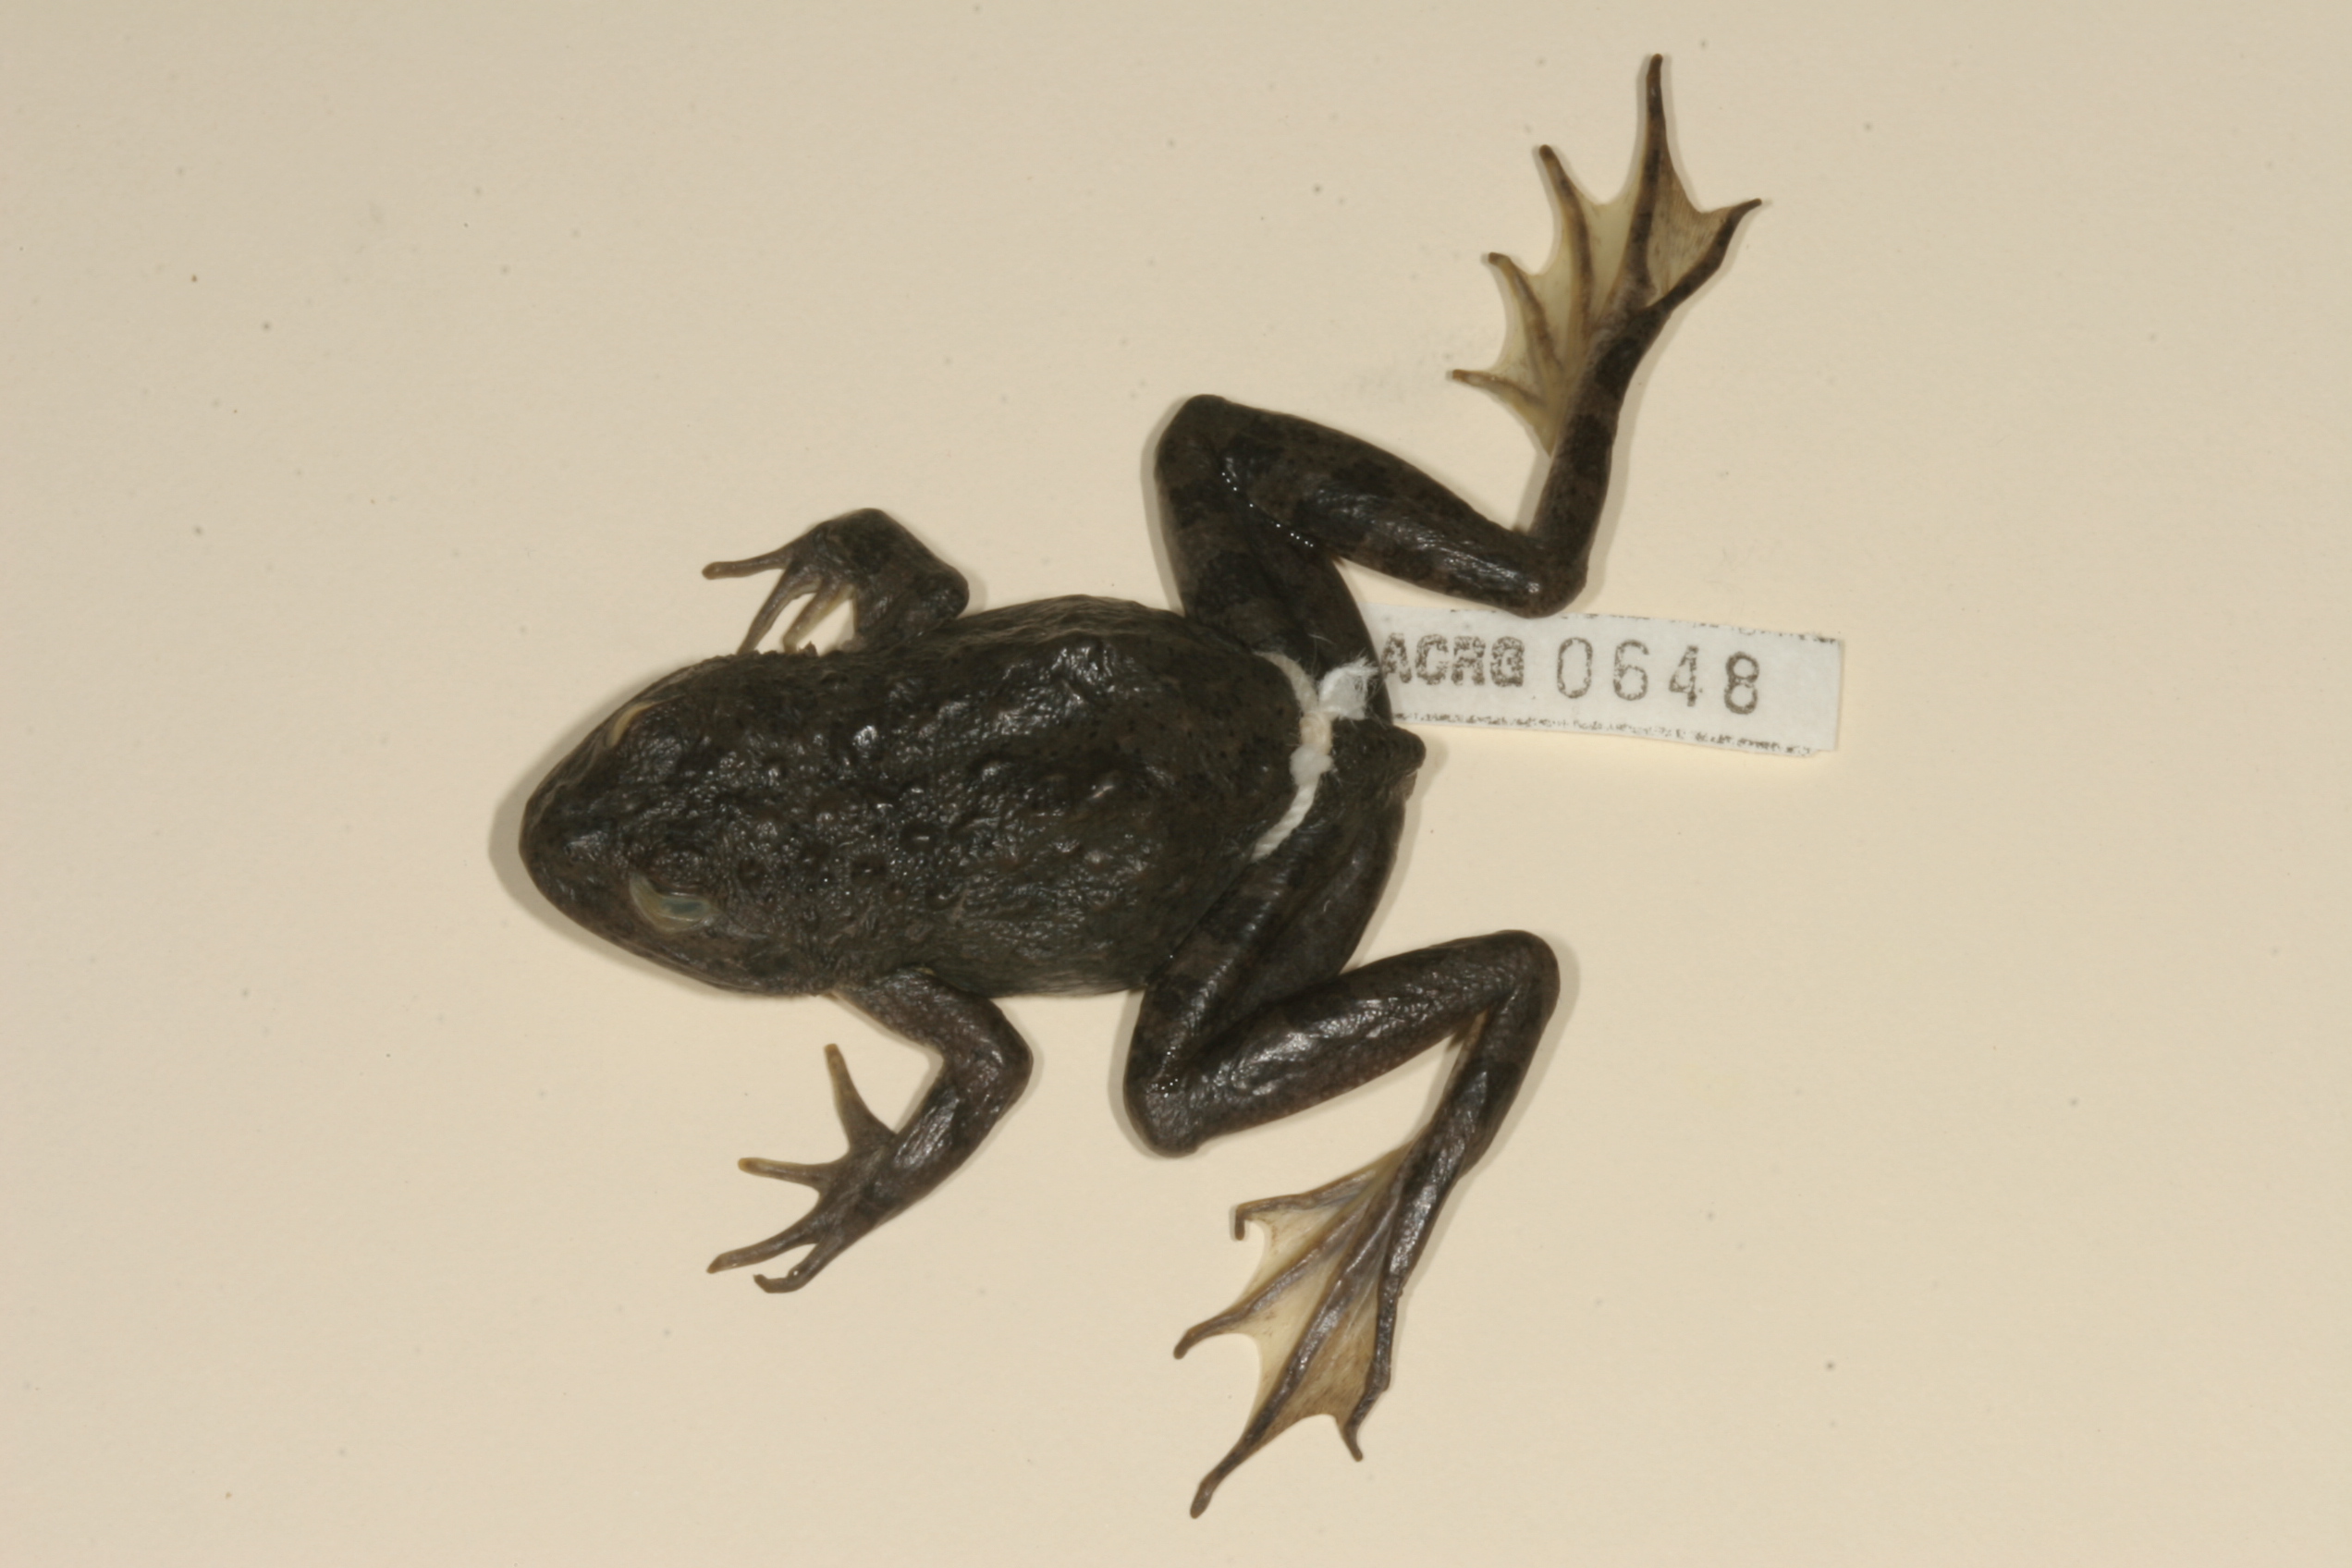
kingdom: Animalia
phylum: Chordata
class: Amphibia
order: Anura
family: Pyxicephalidae
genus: Amietia
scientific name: Amietia vertebralis
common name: Drakensberg stream frog
